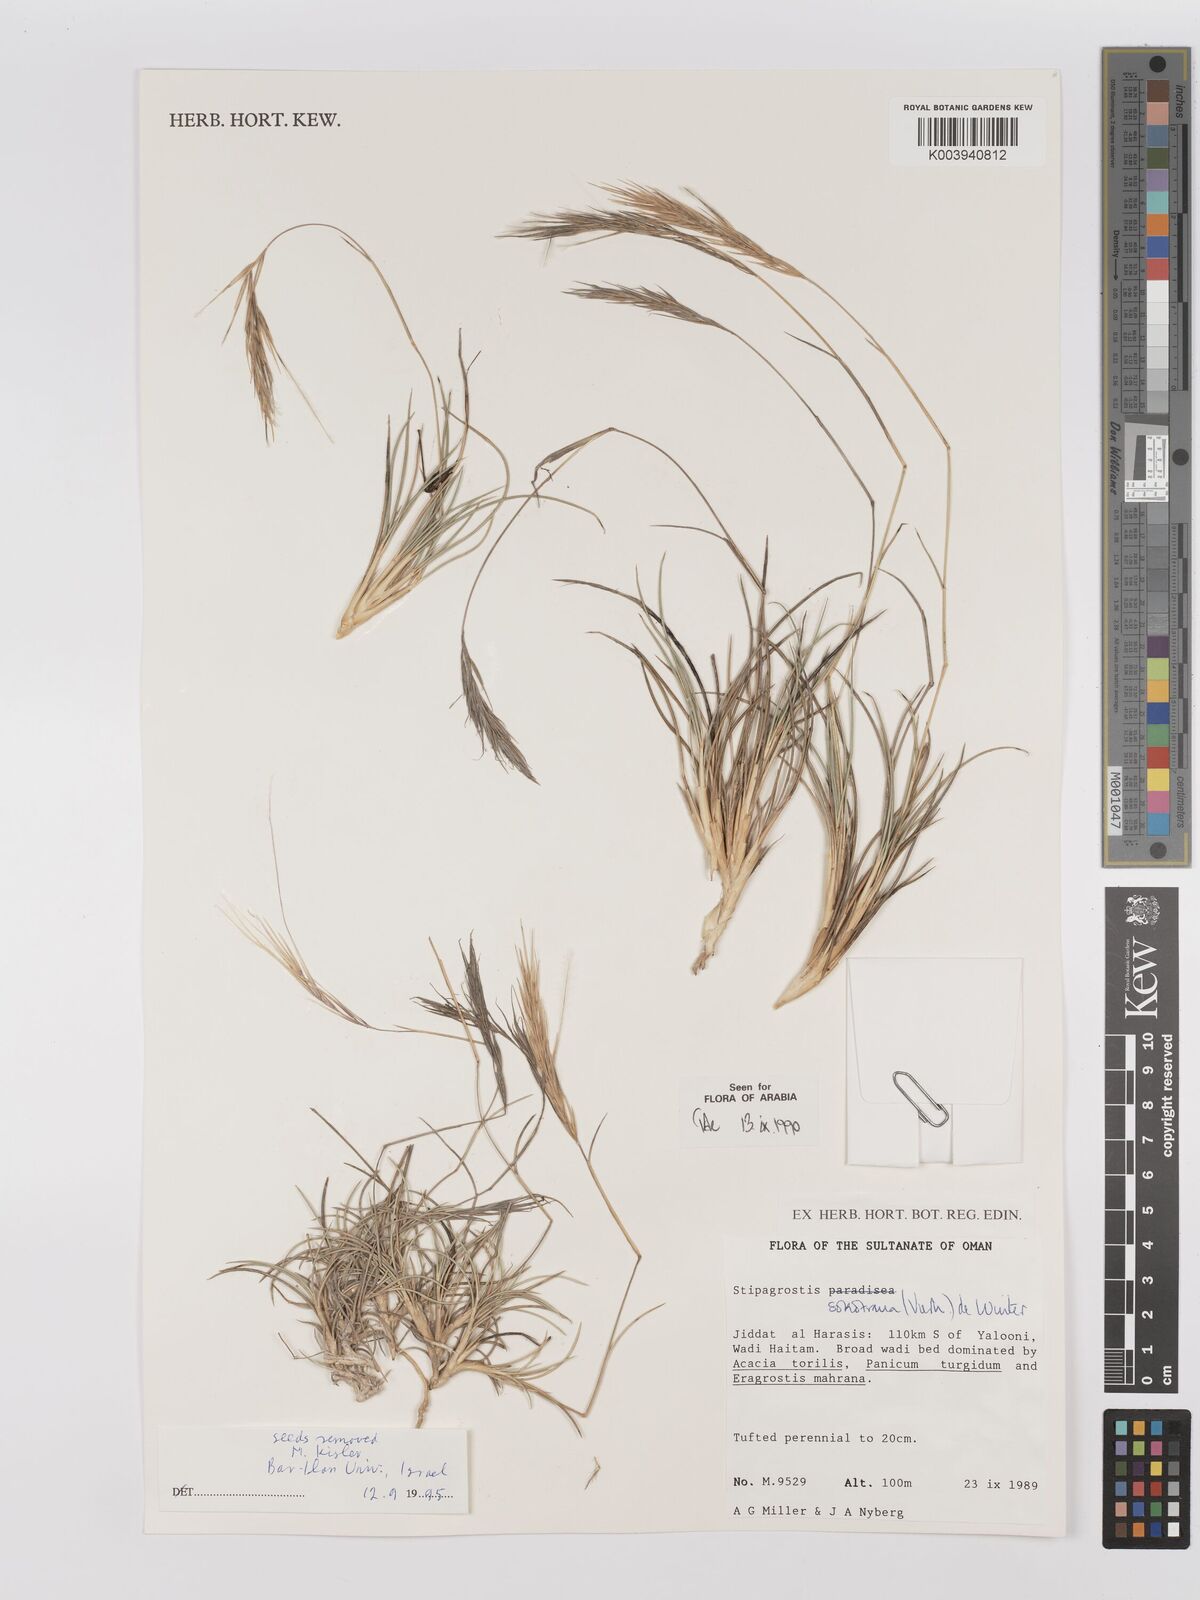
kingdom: Plantae
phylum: Tracheophyta
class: Liliopsida
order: Poales
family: Poaceae
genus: Stipagrostis
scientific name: Stipagrostis sokotrana
